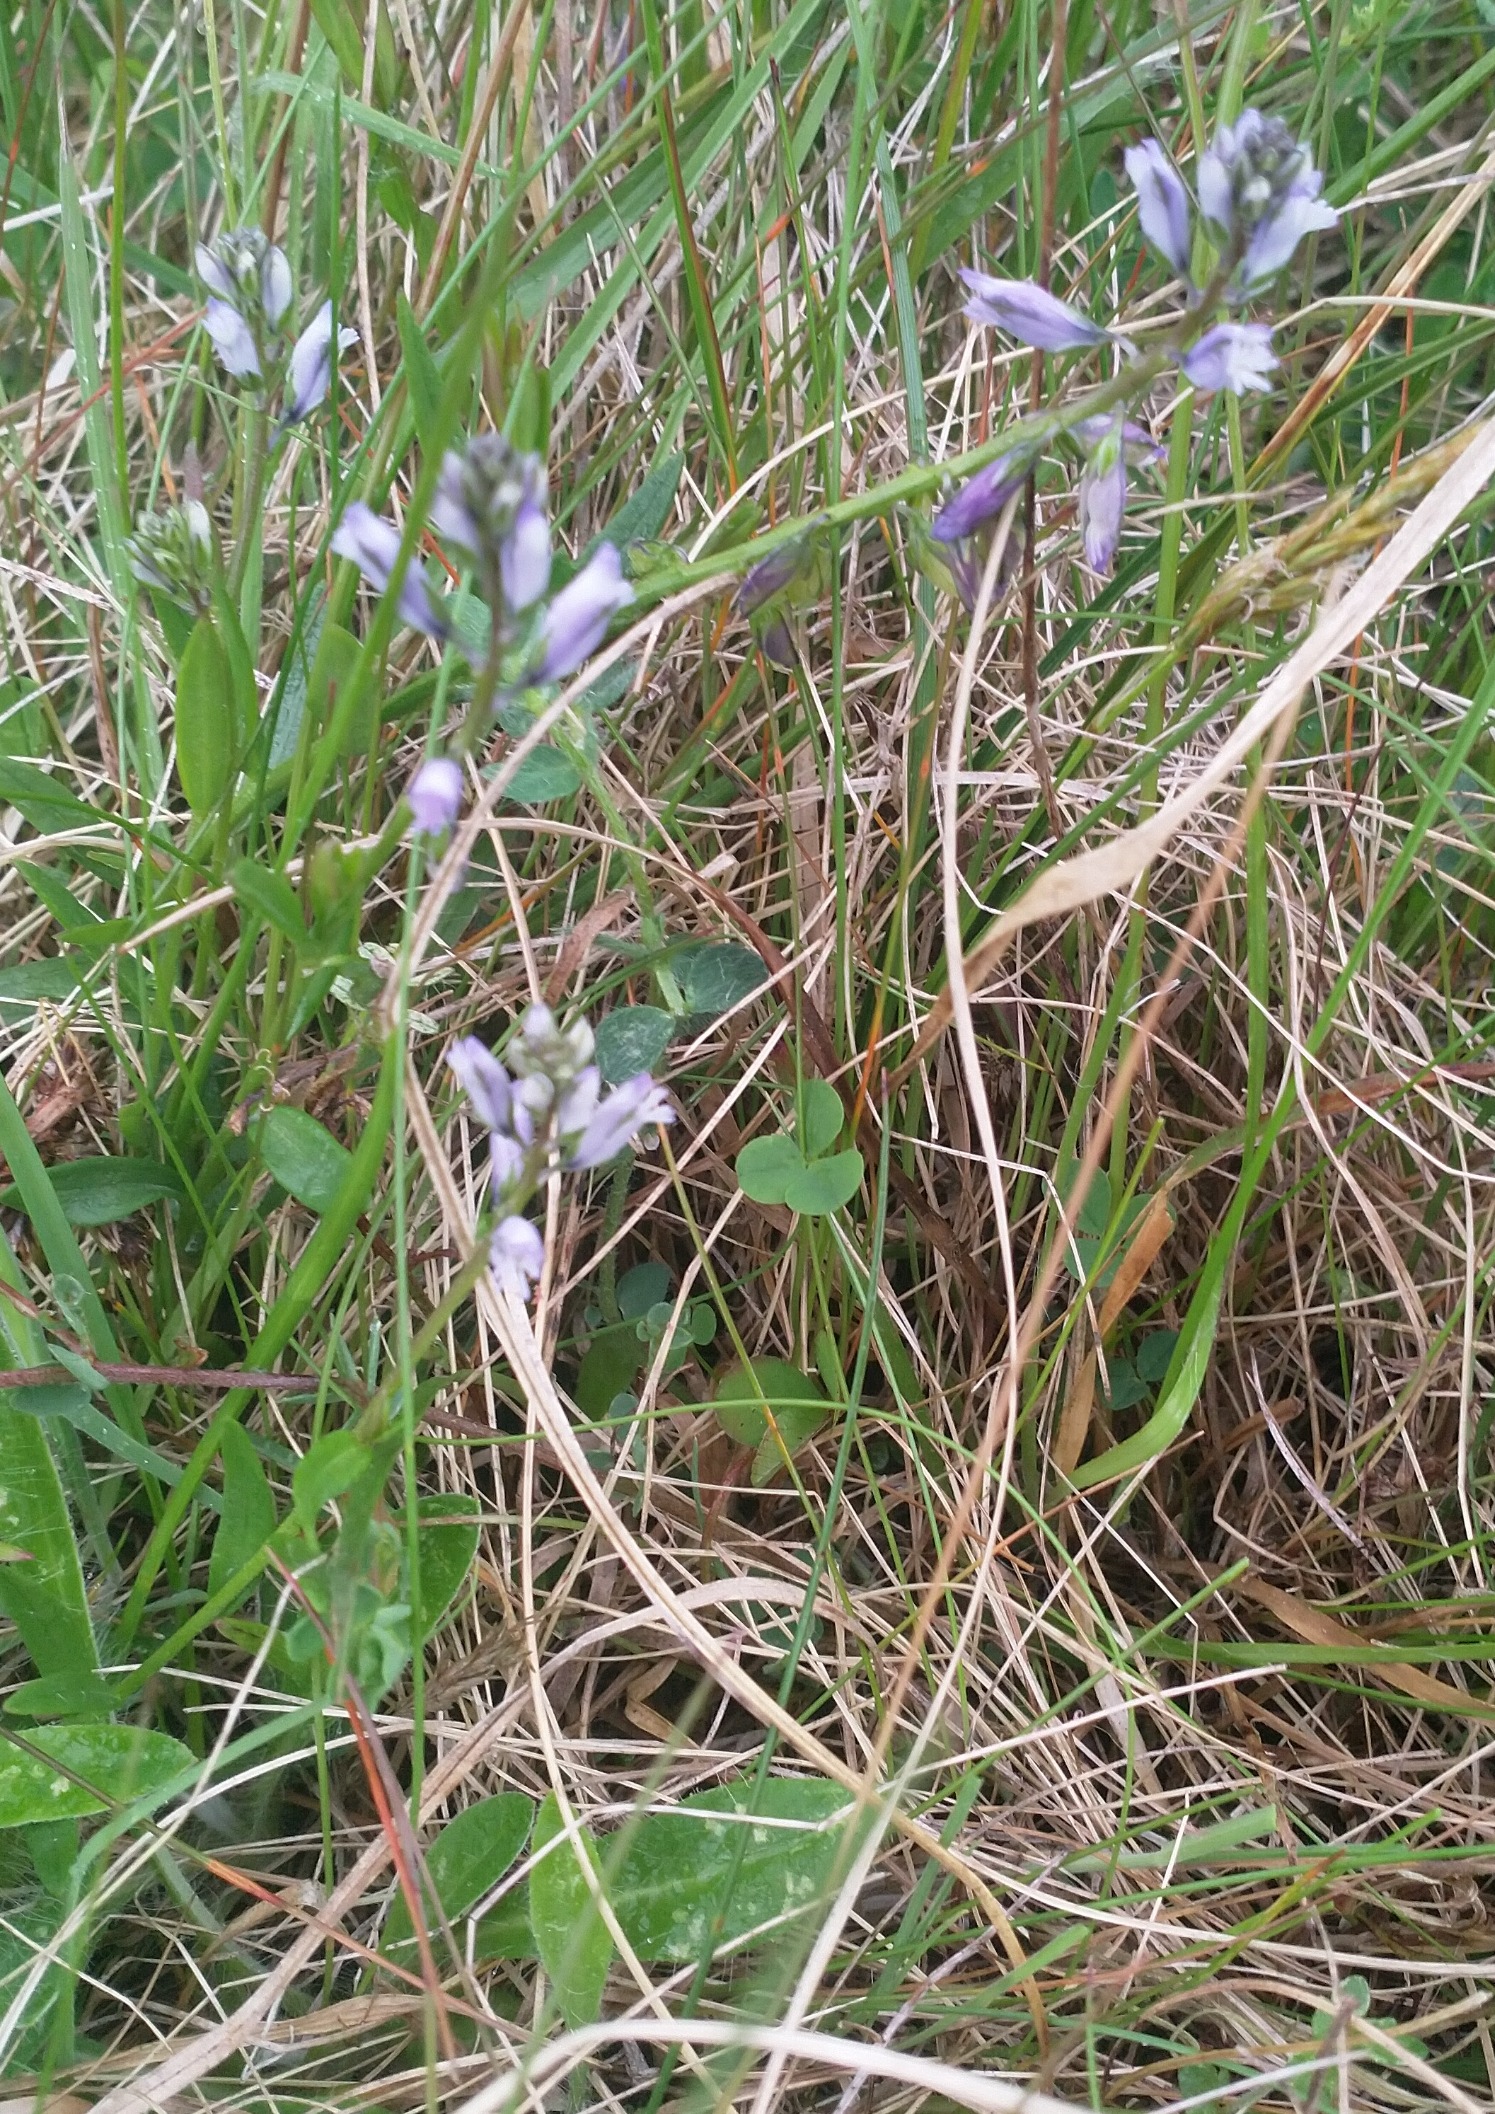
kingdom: Plantae
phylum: Tracheophyta
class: Magnoliopsida
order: Fabales
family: Polygalaceae
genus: Polygala
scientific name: Polygala vulgaris
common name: Almindelig mælkeurt
